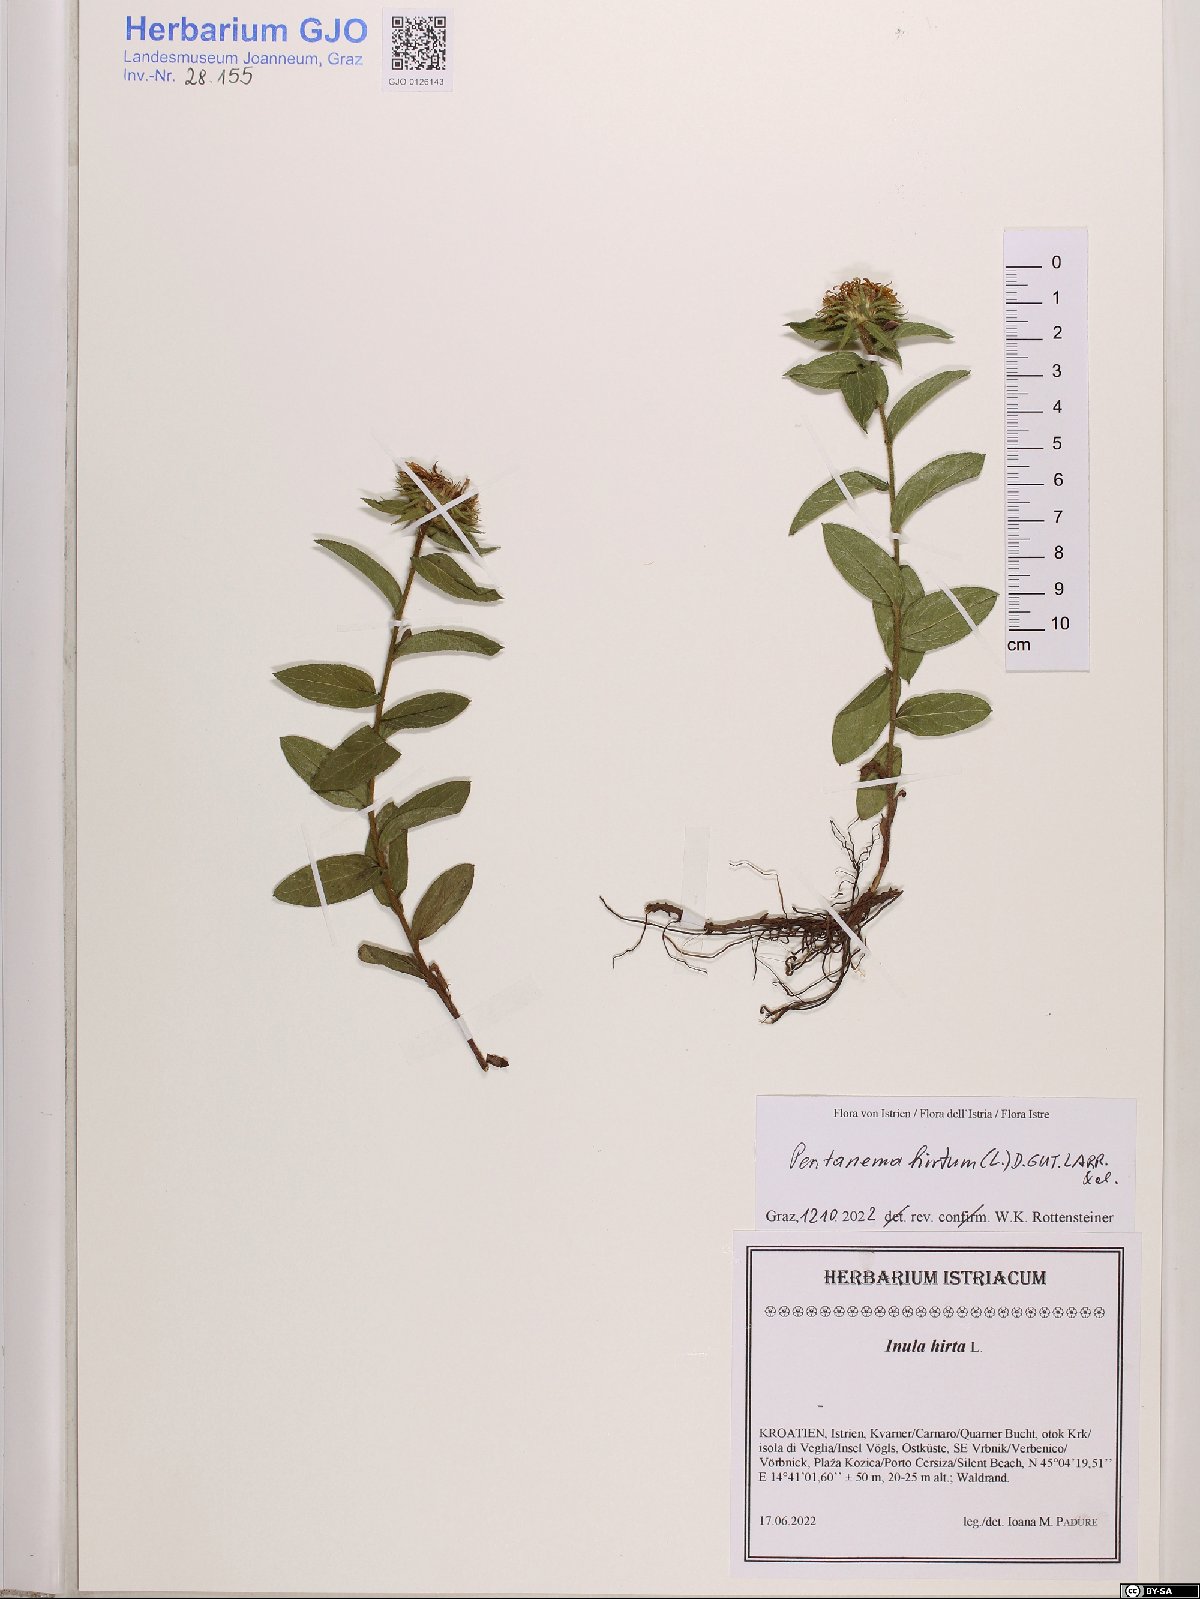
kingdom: Plantae
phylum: Tracheophyta
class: Magnoliopsida
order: Asterales
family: Asteraceae
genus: Pentanema
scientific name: Pentanema hirtum
